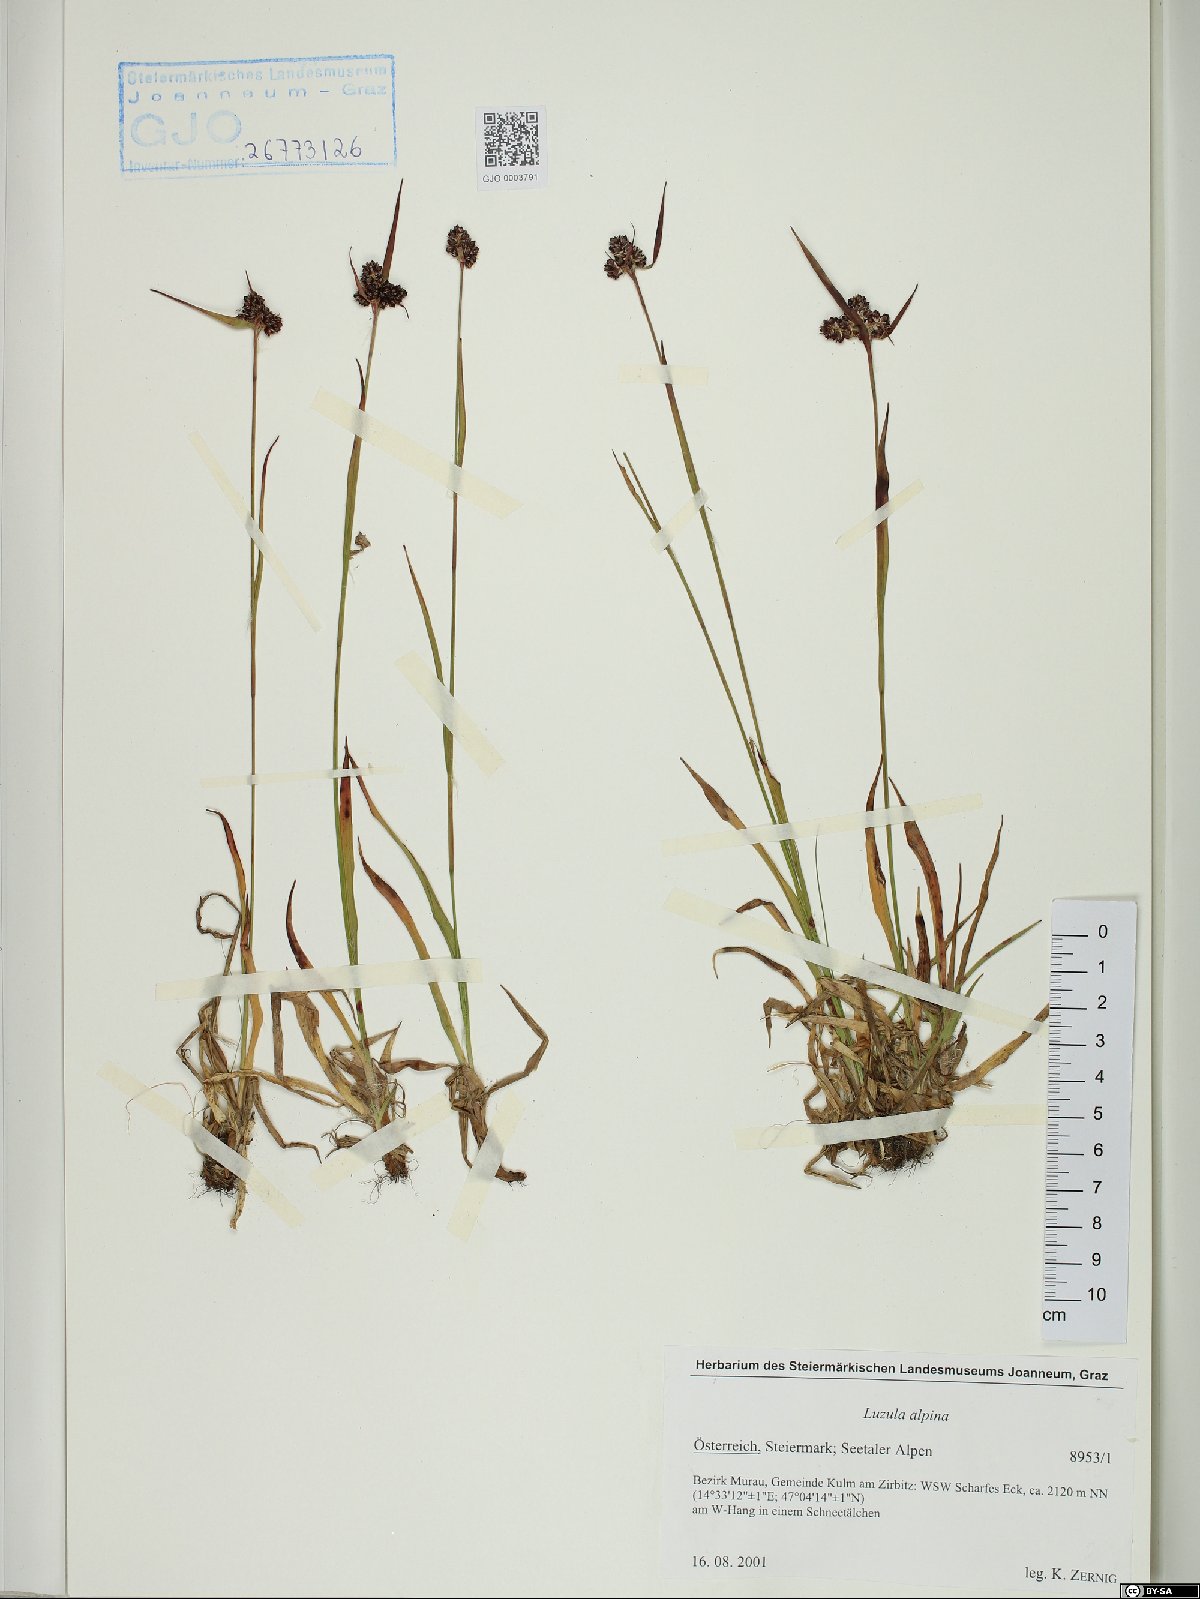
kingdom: Plantae
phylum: Tracheophyta
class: Liliopsida
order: Poales
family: Juncaceae
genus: Luzula
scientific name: Luzula alpina
